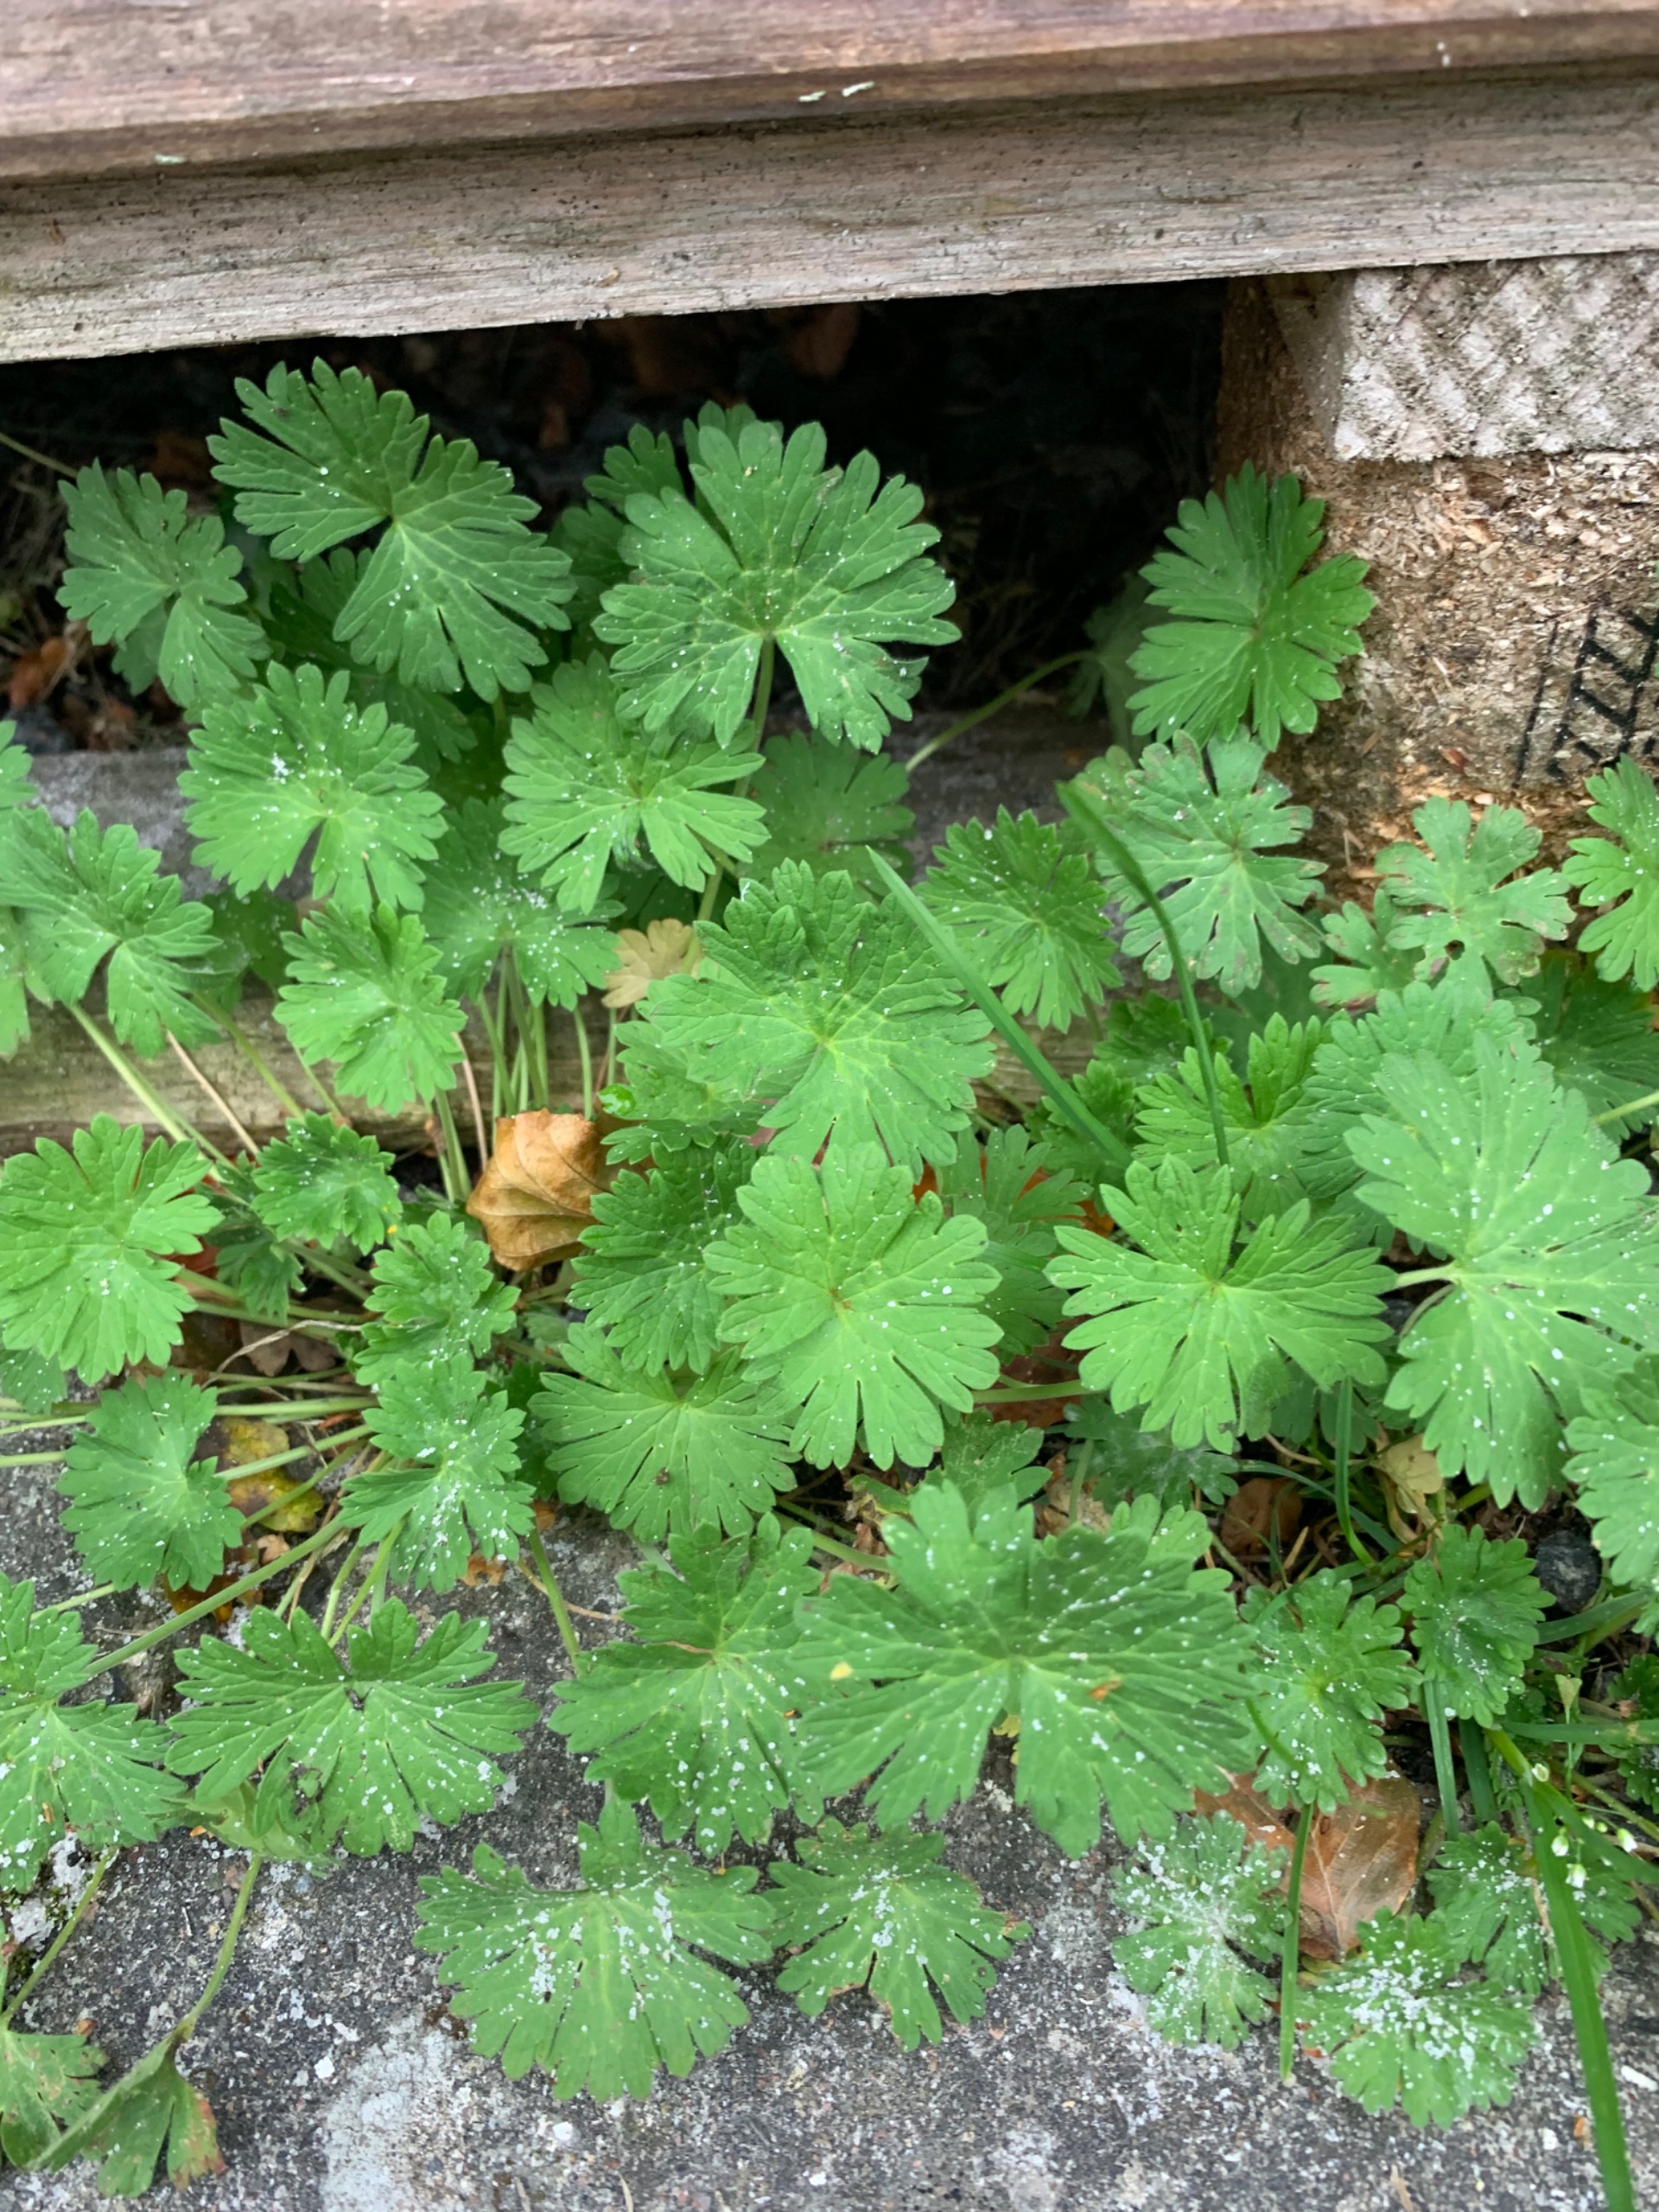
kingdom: Plantae
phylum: Tracheophyta
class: Magnoliopsida
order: Geraniales
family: Geraniaceae
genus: Geranium
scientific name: Geranium pusillum
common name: Liden storkenæb
